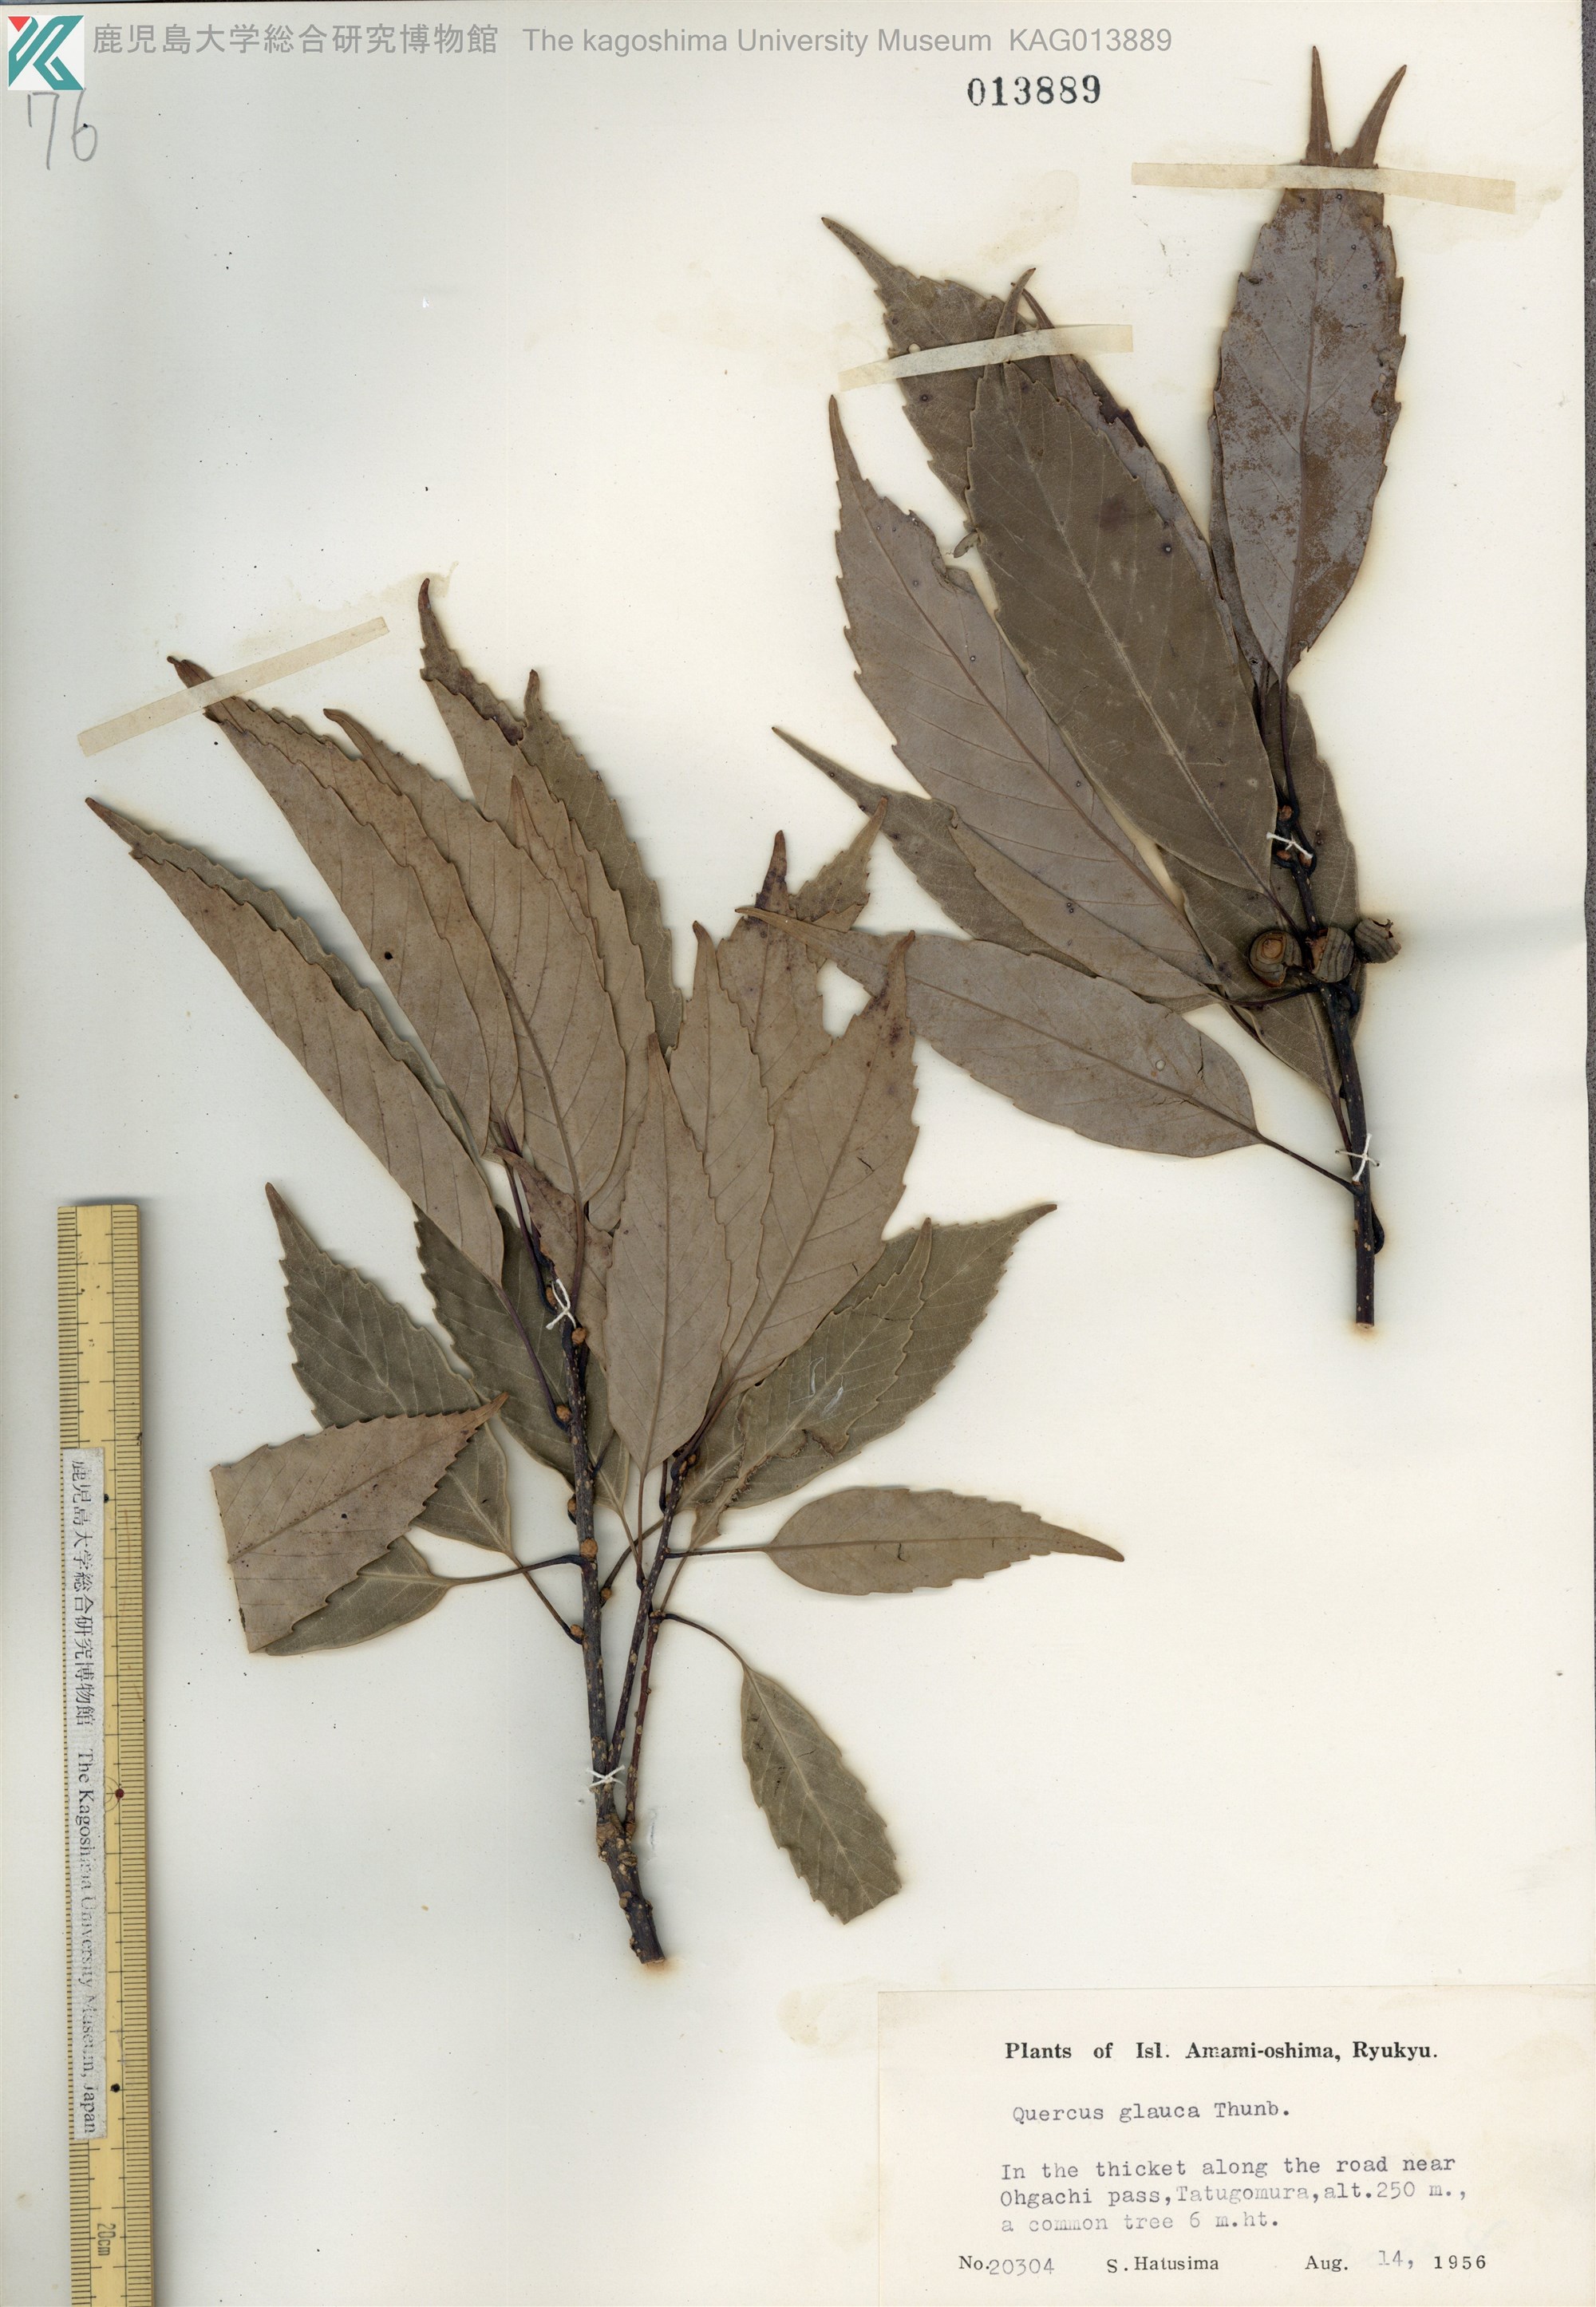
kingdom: Plantae
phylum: Tracheophyta
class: Magnoliopsida
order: Fagales
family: Fagaceae
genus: Quercus
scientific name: Quercus glauca
